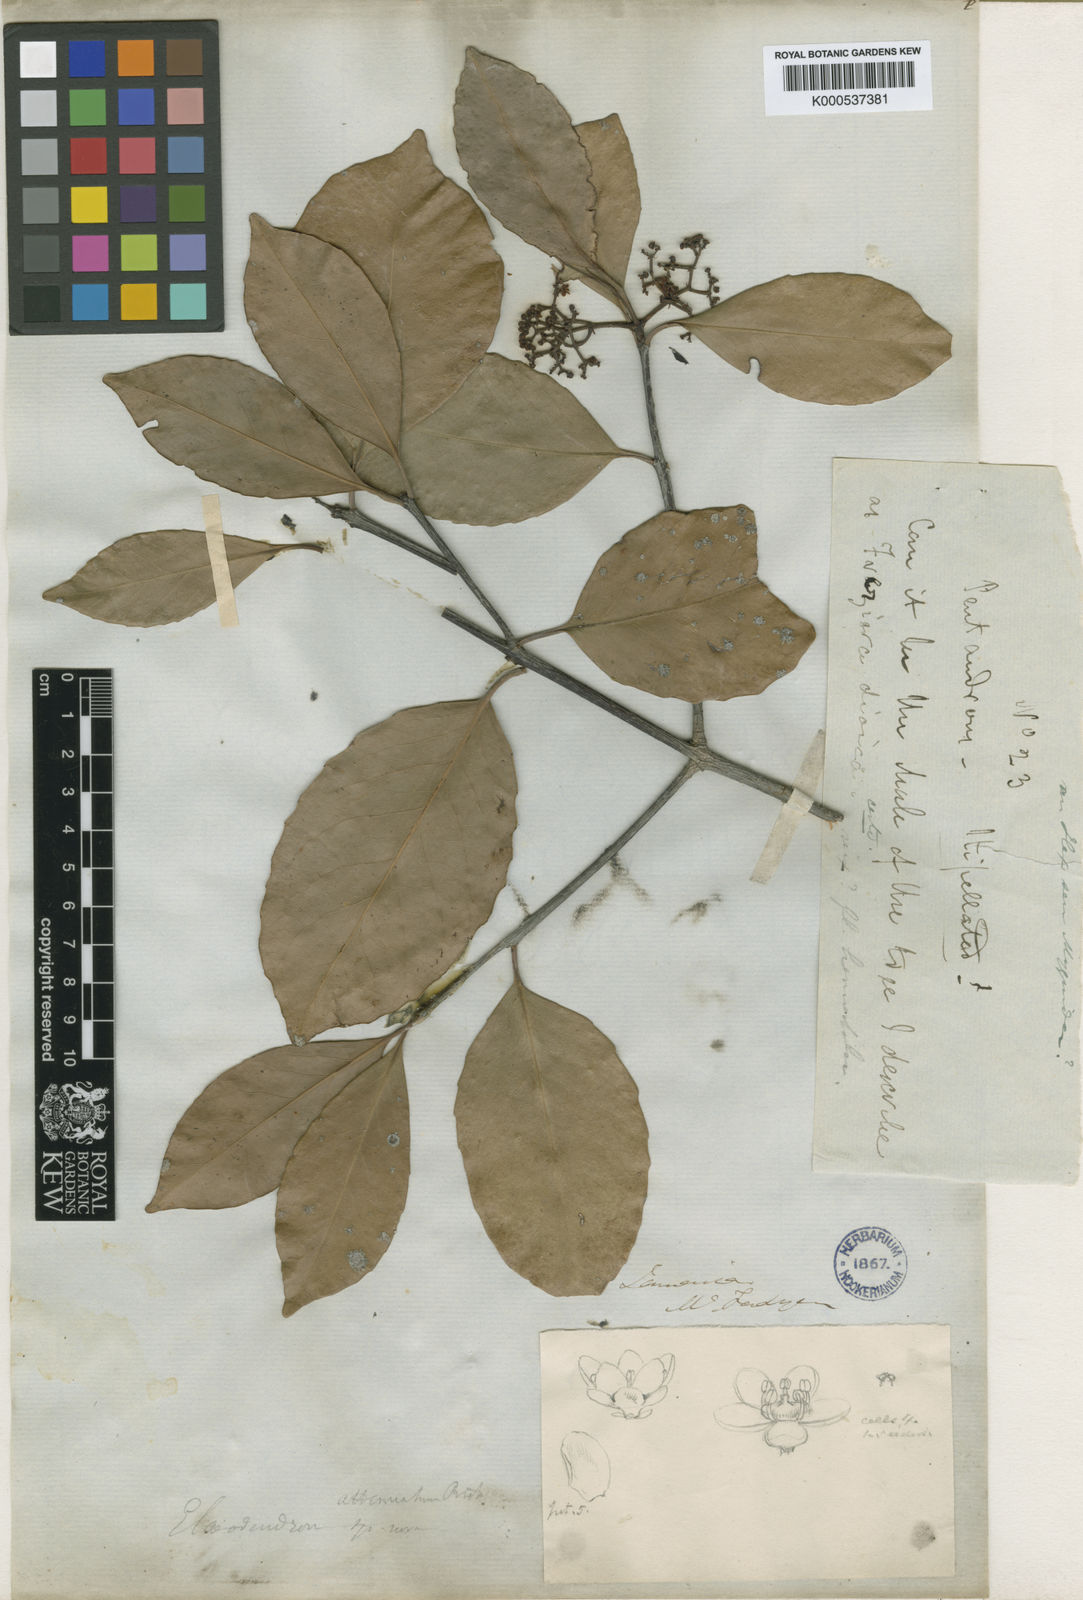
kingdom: Plantae
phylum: Tracheophyta
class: Magnoliopsida
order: Celastrales
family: Celastraceae
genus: Elaeodendron
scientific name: Elaeodendron xylocarpum
